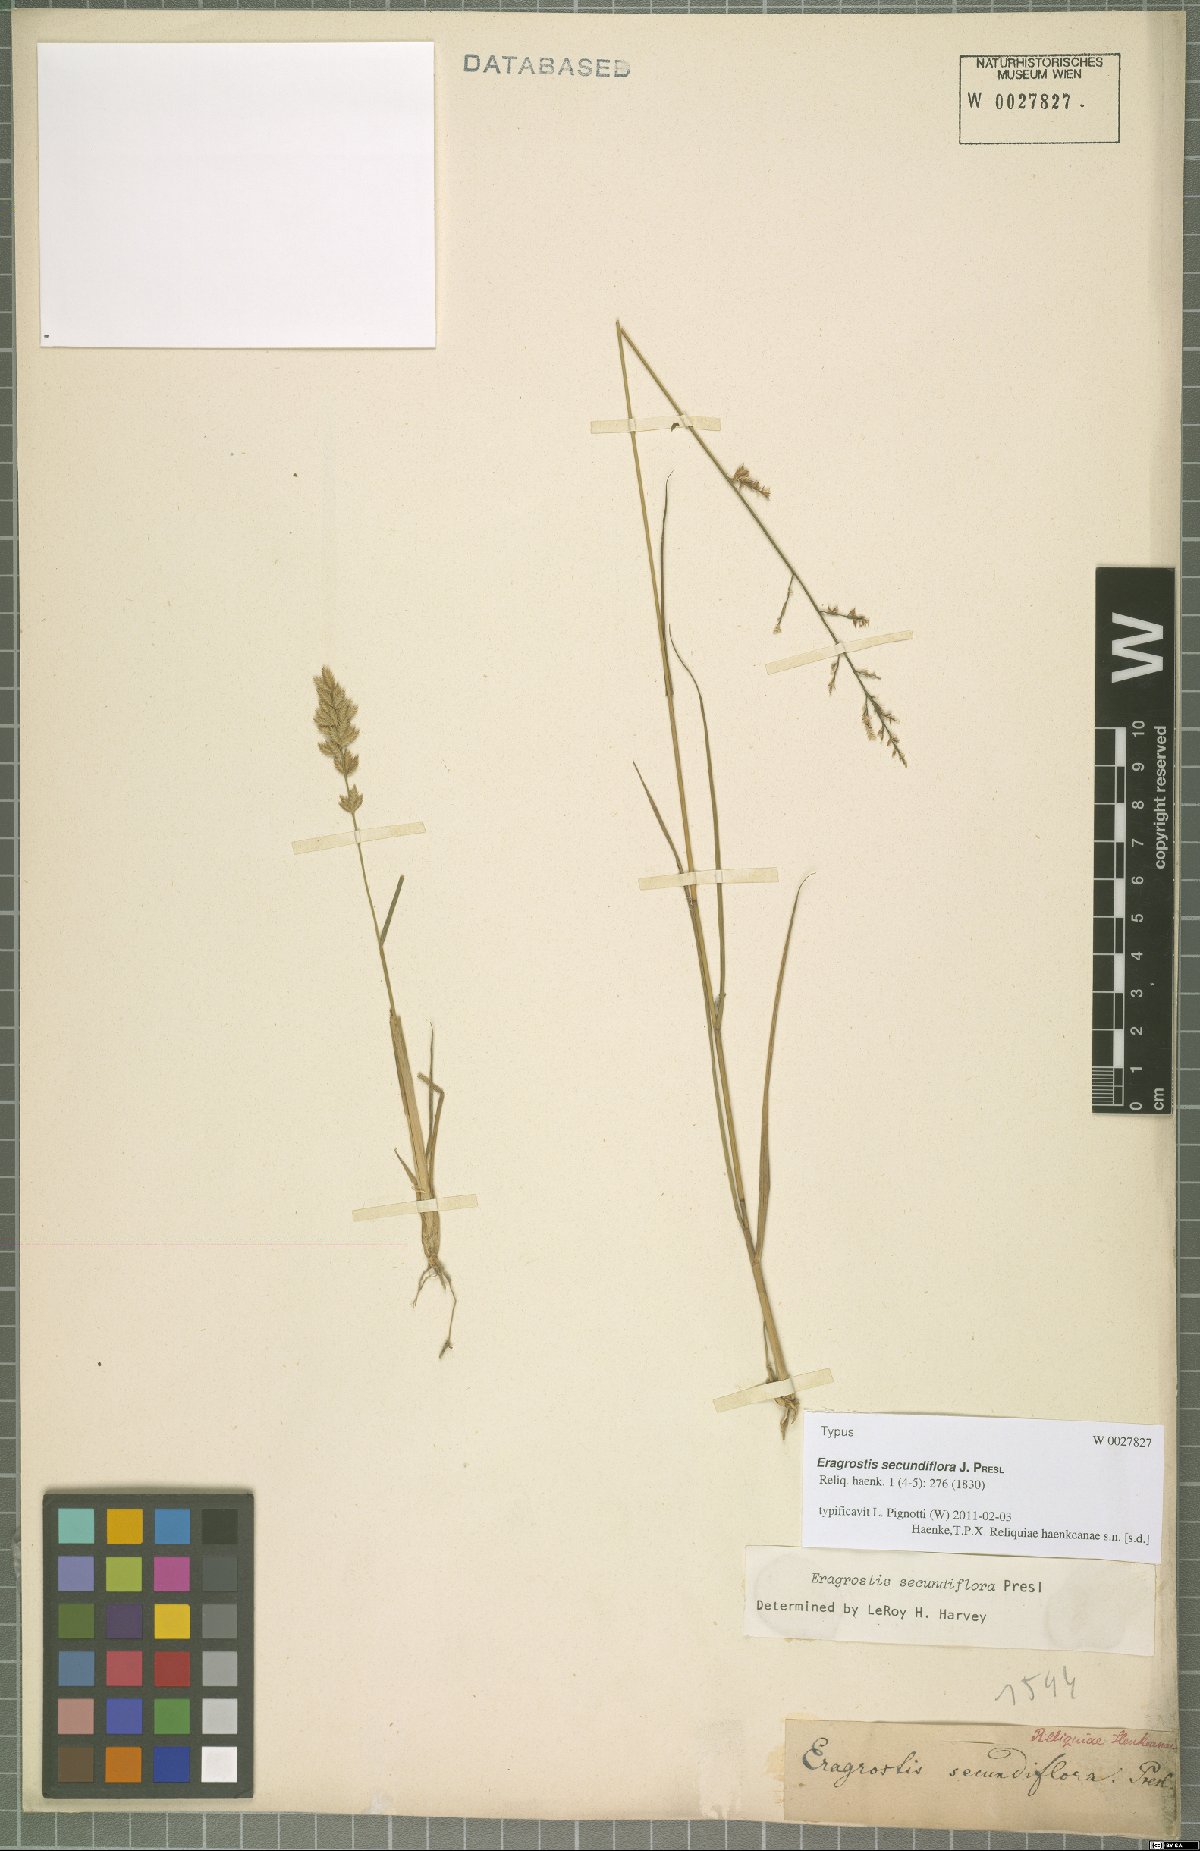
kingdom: Plantae
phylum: Tracheophyta
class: Liliopsida
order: Poales
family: Poaceae
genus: Eragrostis
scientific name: Eragrostis secundiflora
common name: Red love grass
